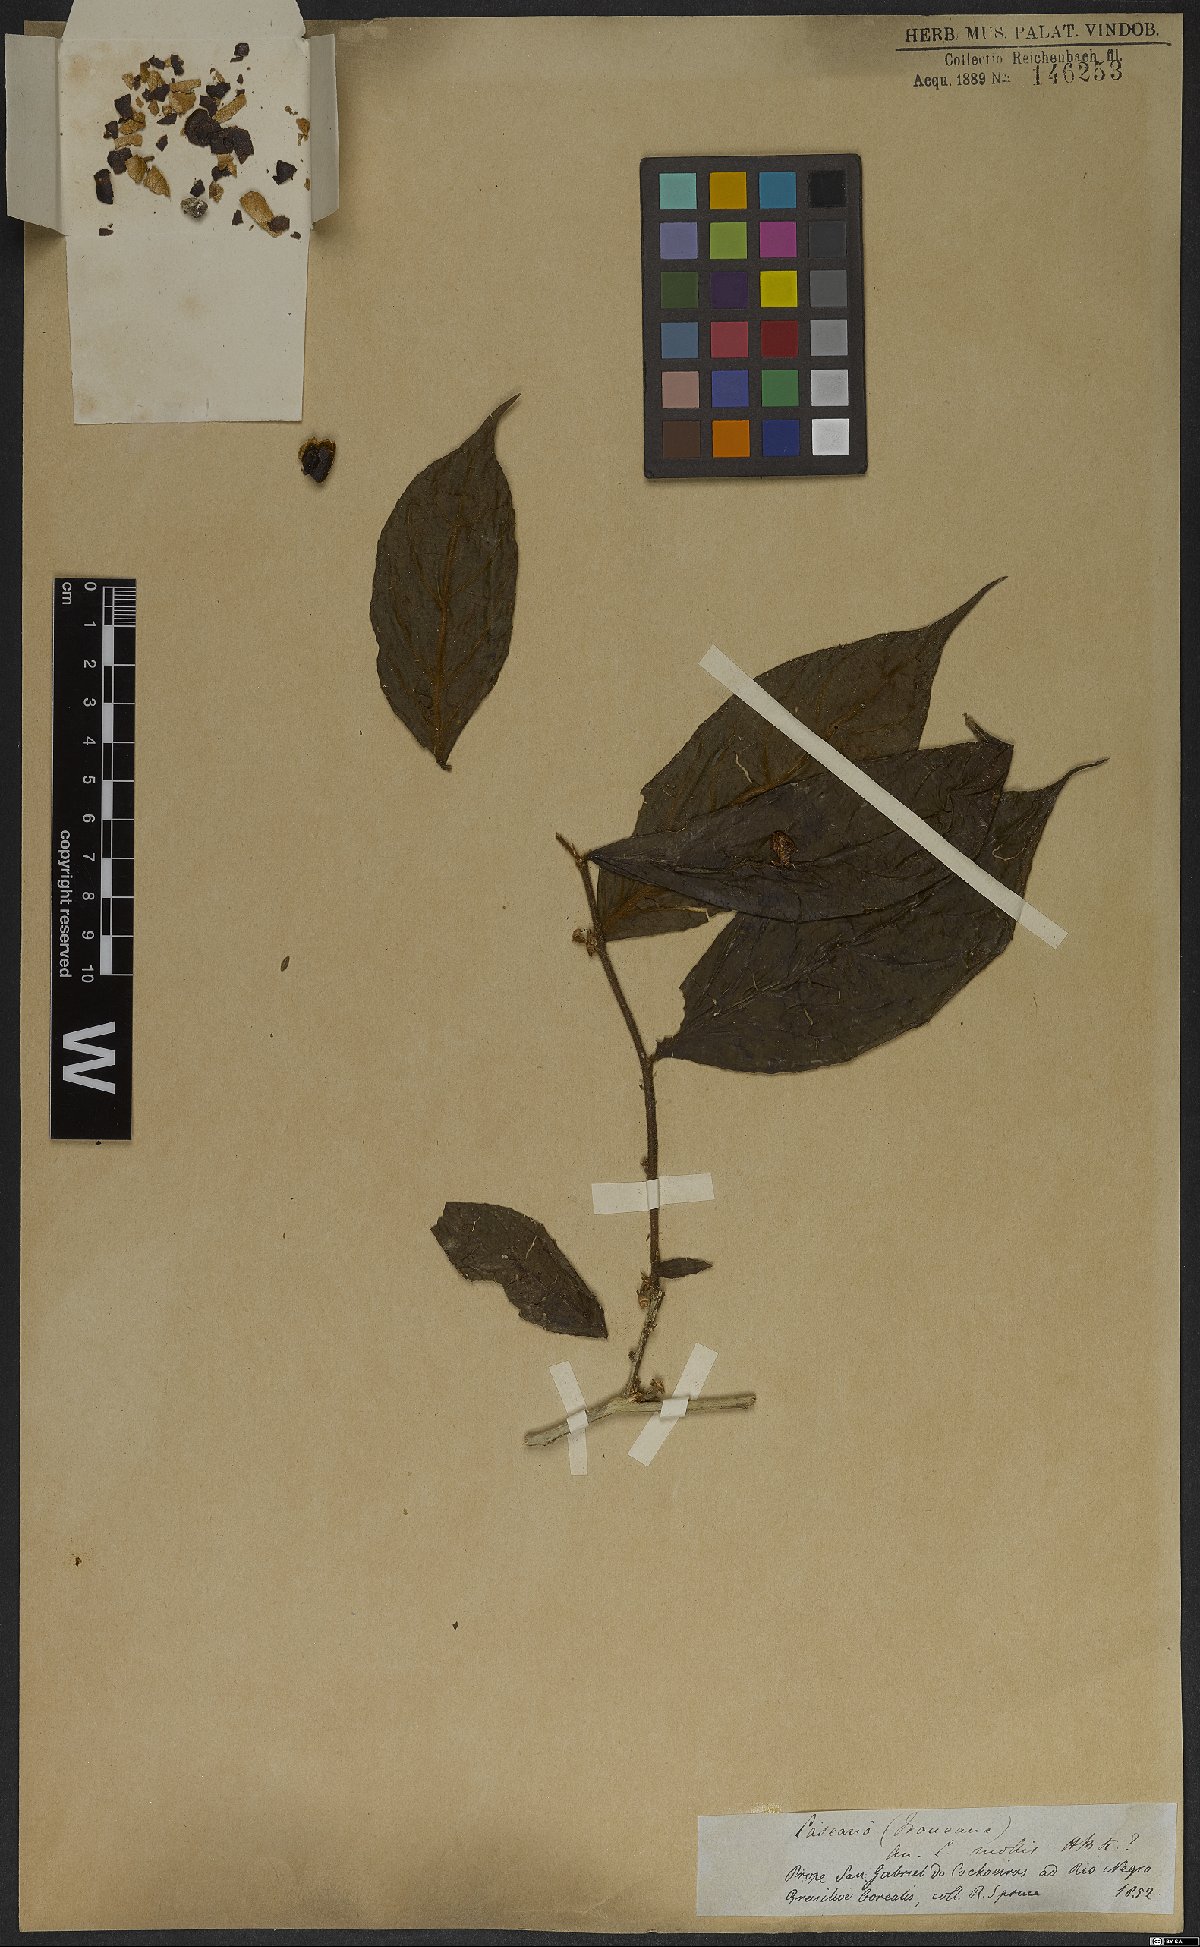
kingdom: Plantae
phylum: Tracheophyta
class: Magnoliopsida
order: Malpighiales
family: Salicaceae
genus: Casearia
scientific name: Casearia hirsuta
